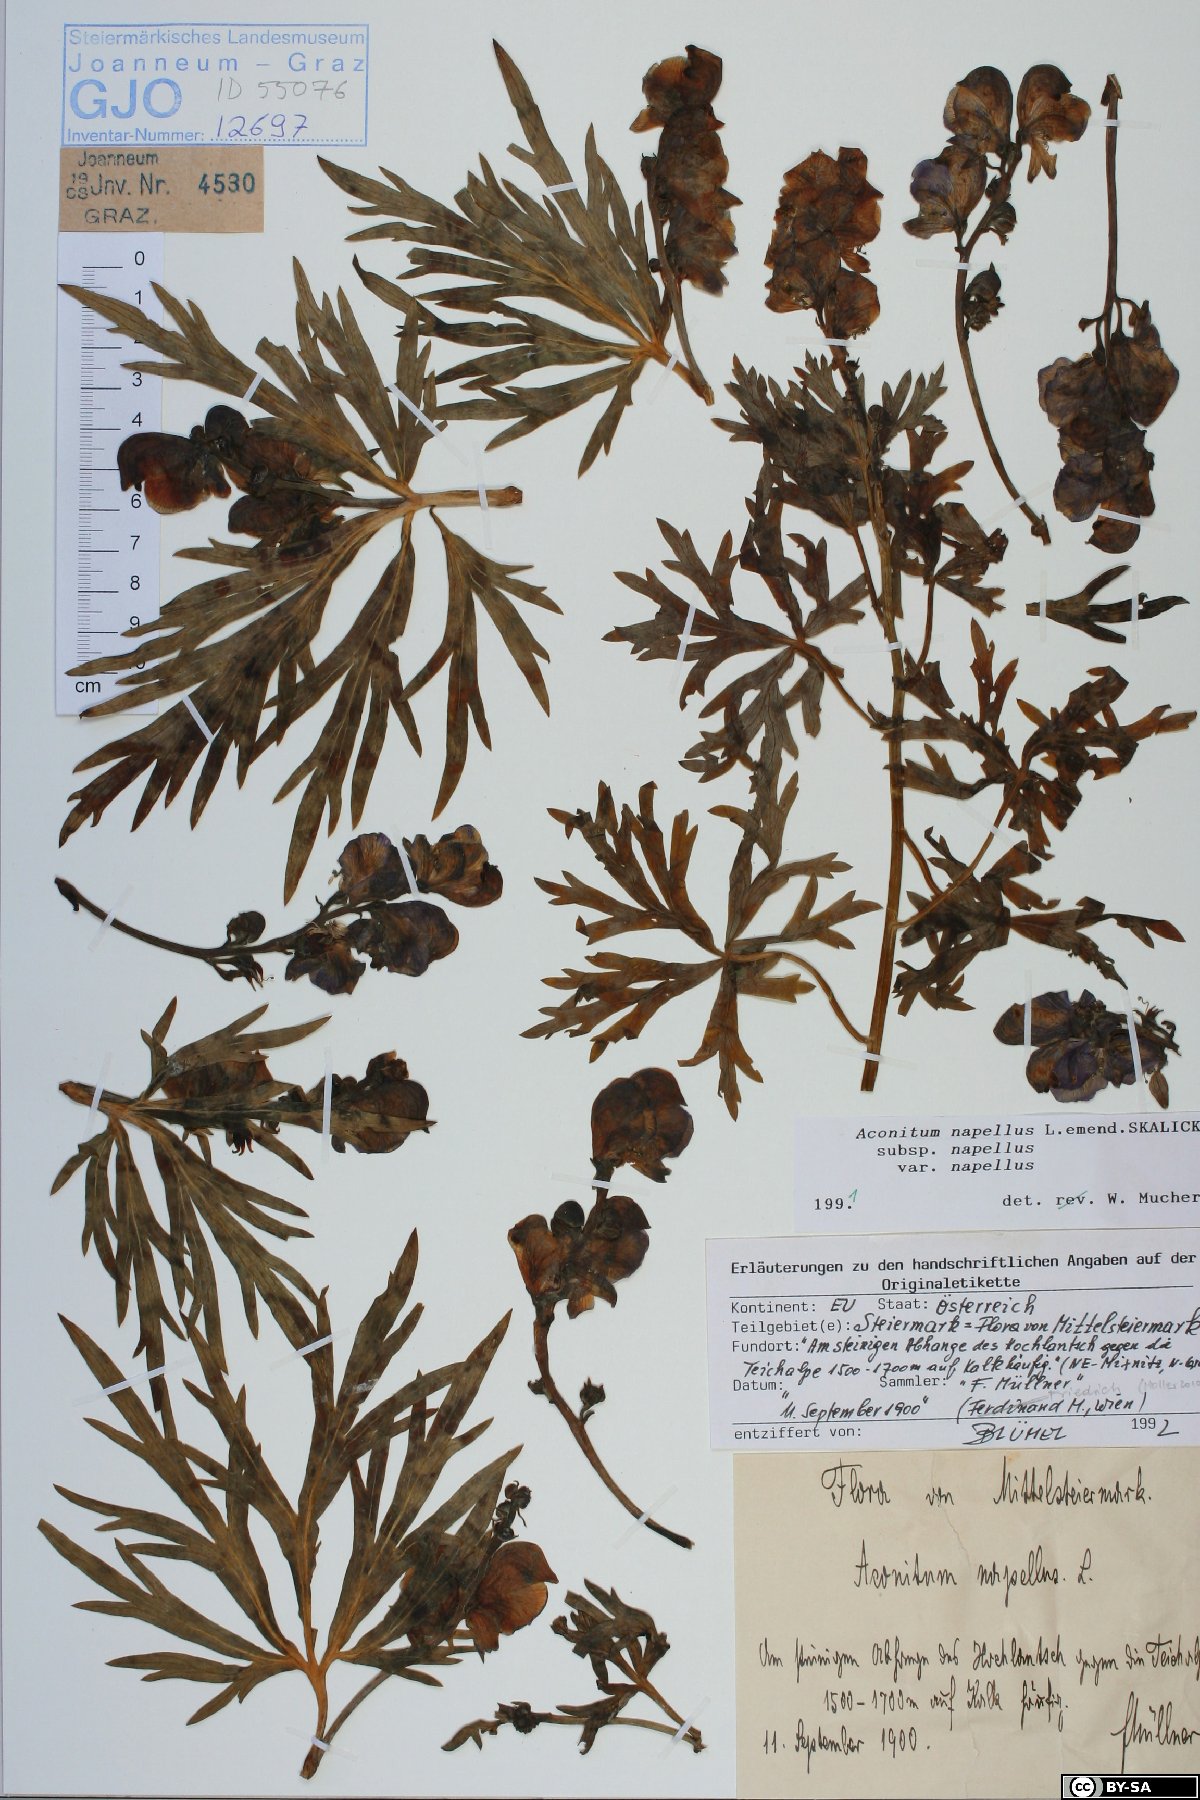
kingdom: Plantae
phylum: Tracheophyta
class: Magnoliopsida
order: Ranunculales
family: Ranunculaceae
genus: Aconitum
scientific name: Aconitum napellus
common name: Garden monkshood
